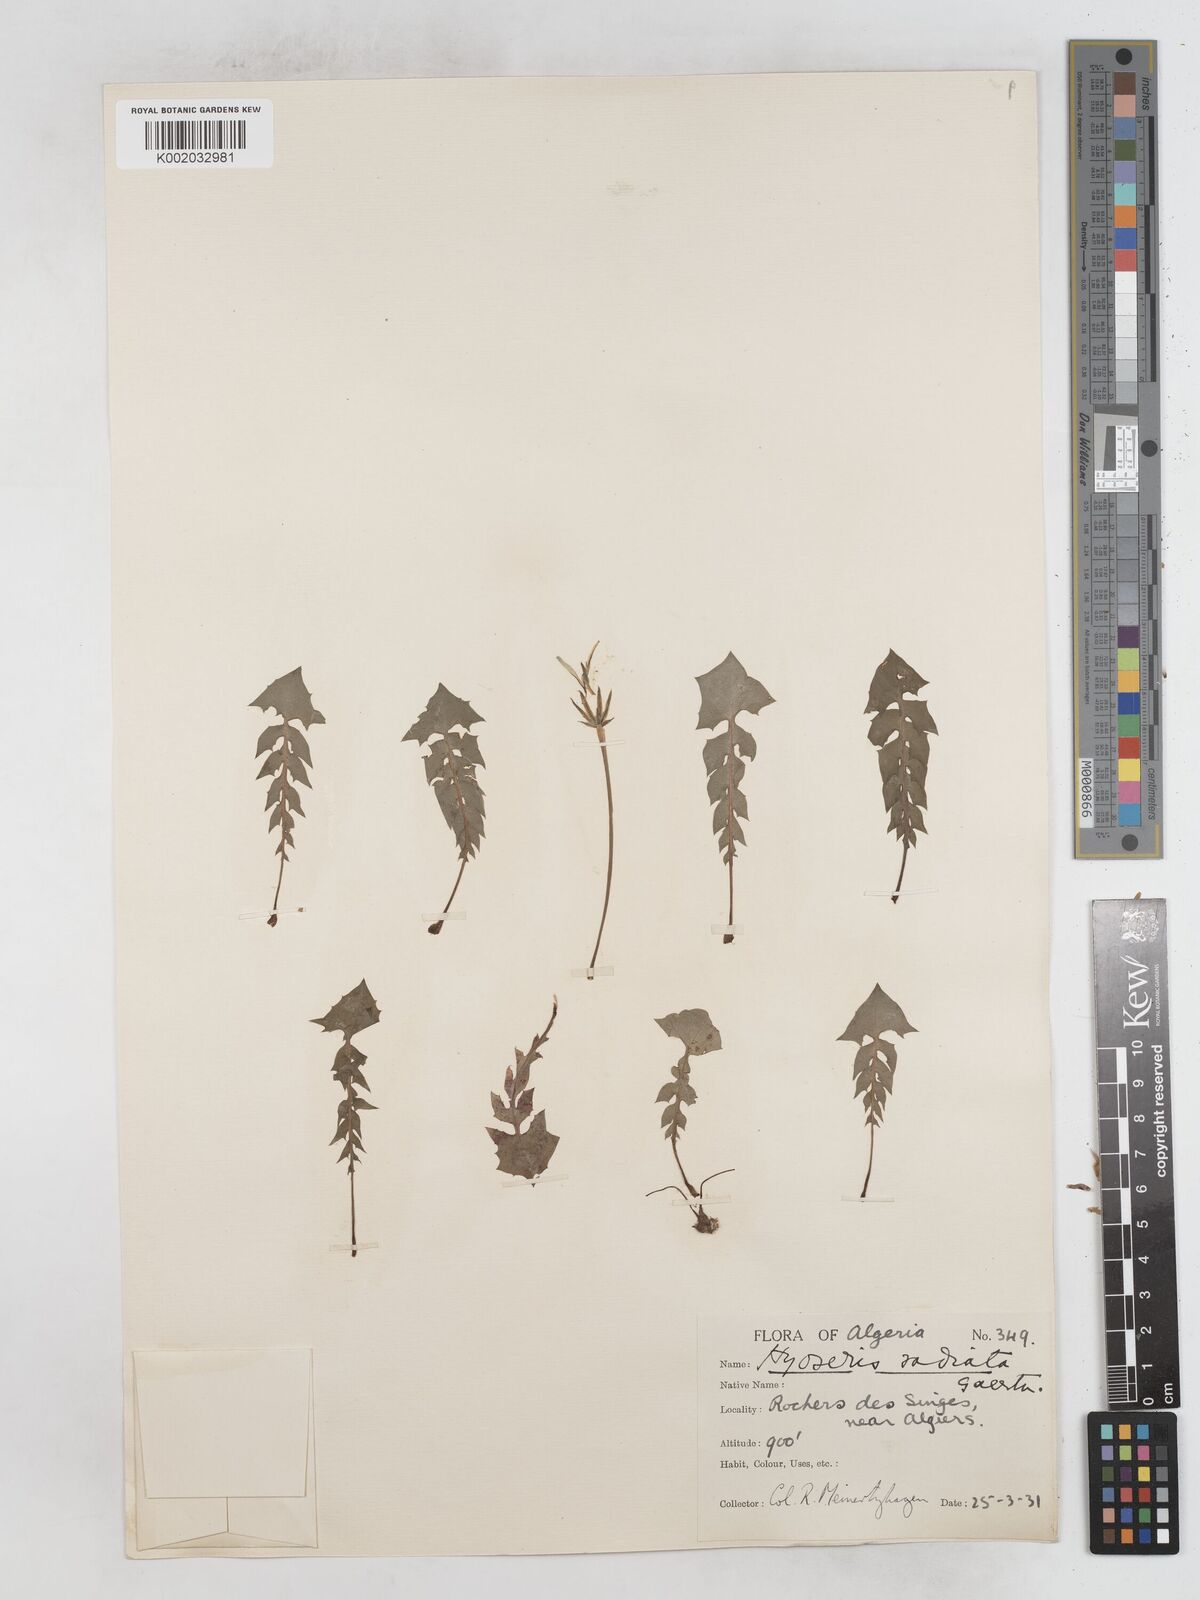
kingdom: Plantae
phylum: Tracheophyta
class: Magnoliopsida
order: Asterales
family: Asteraceae
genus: Hyoseris
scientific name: Hyoseris radiata
